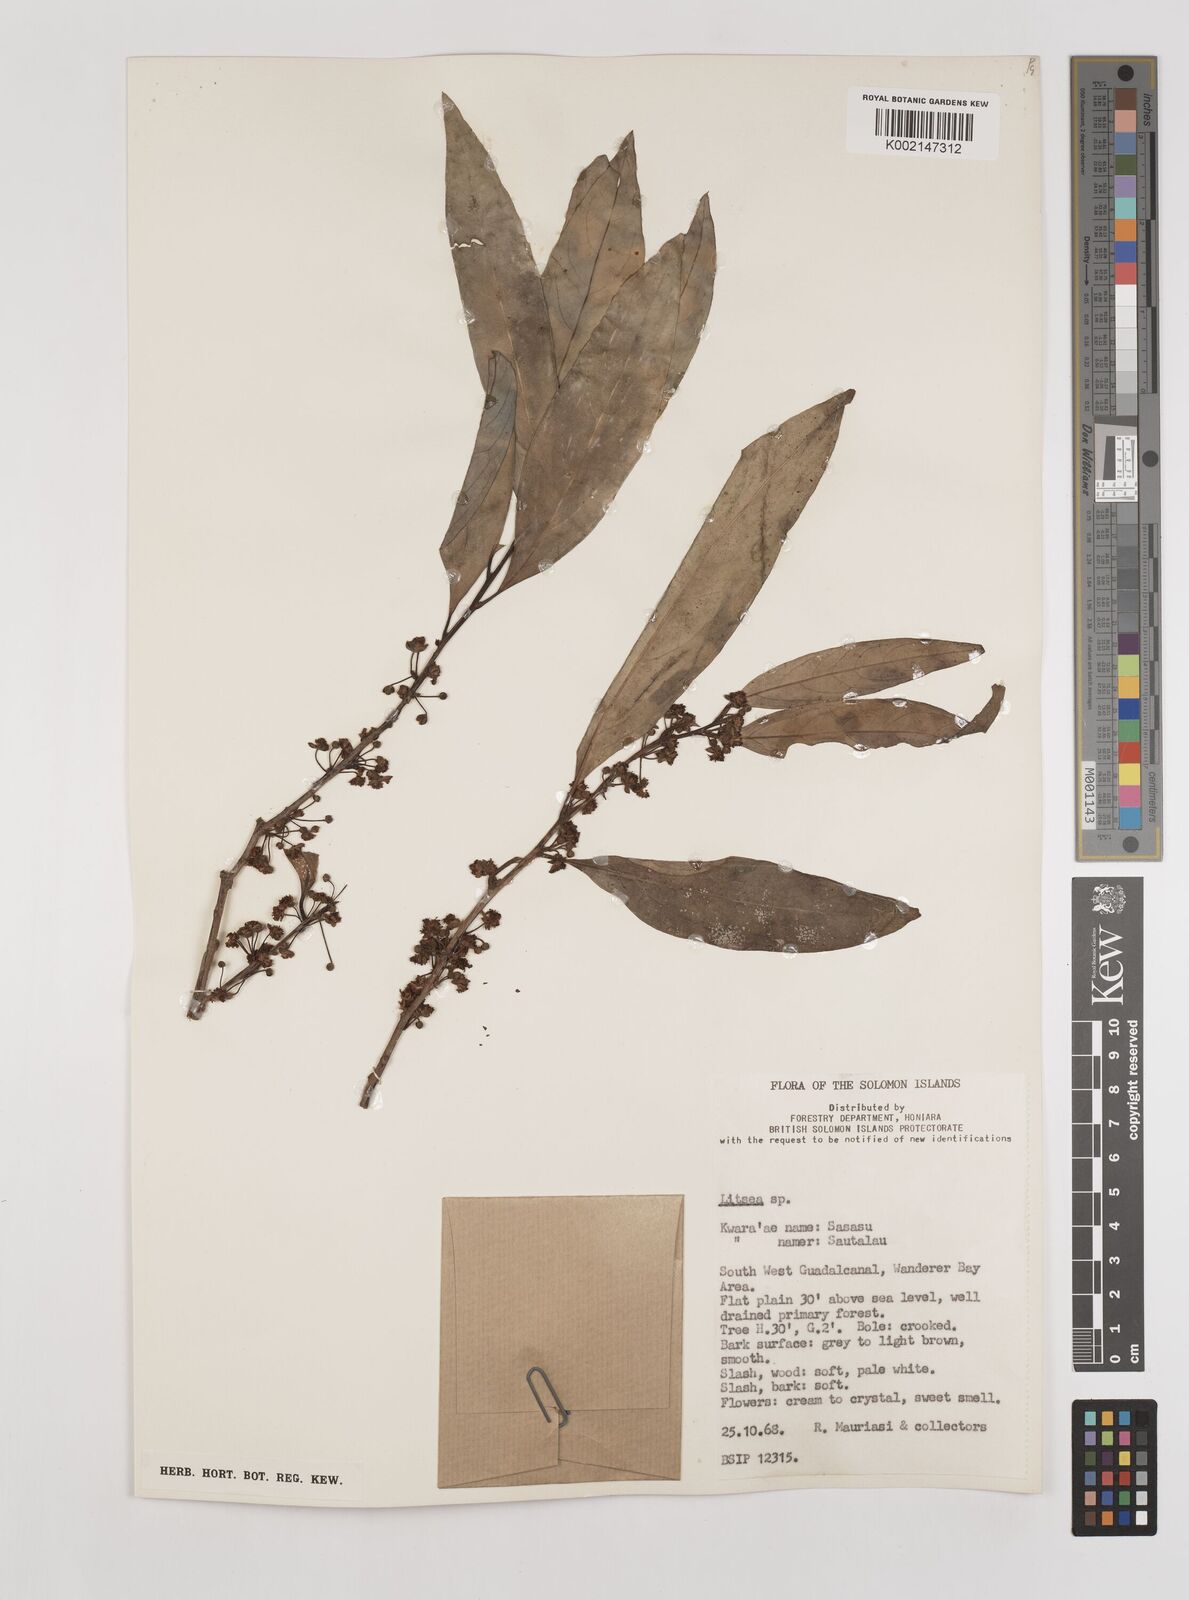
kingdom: Plantae
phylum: Tracheophyta
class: Magnoliopsida
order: Laurales
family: Lauraceae
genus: Litsea
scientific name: Litsea timoriana
